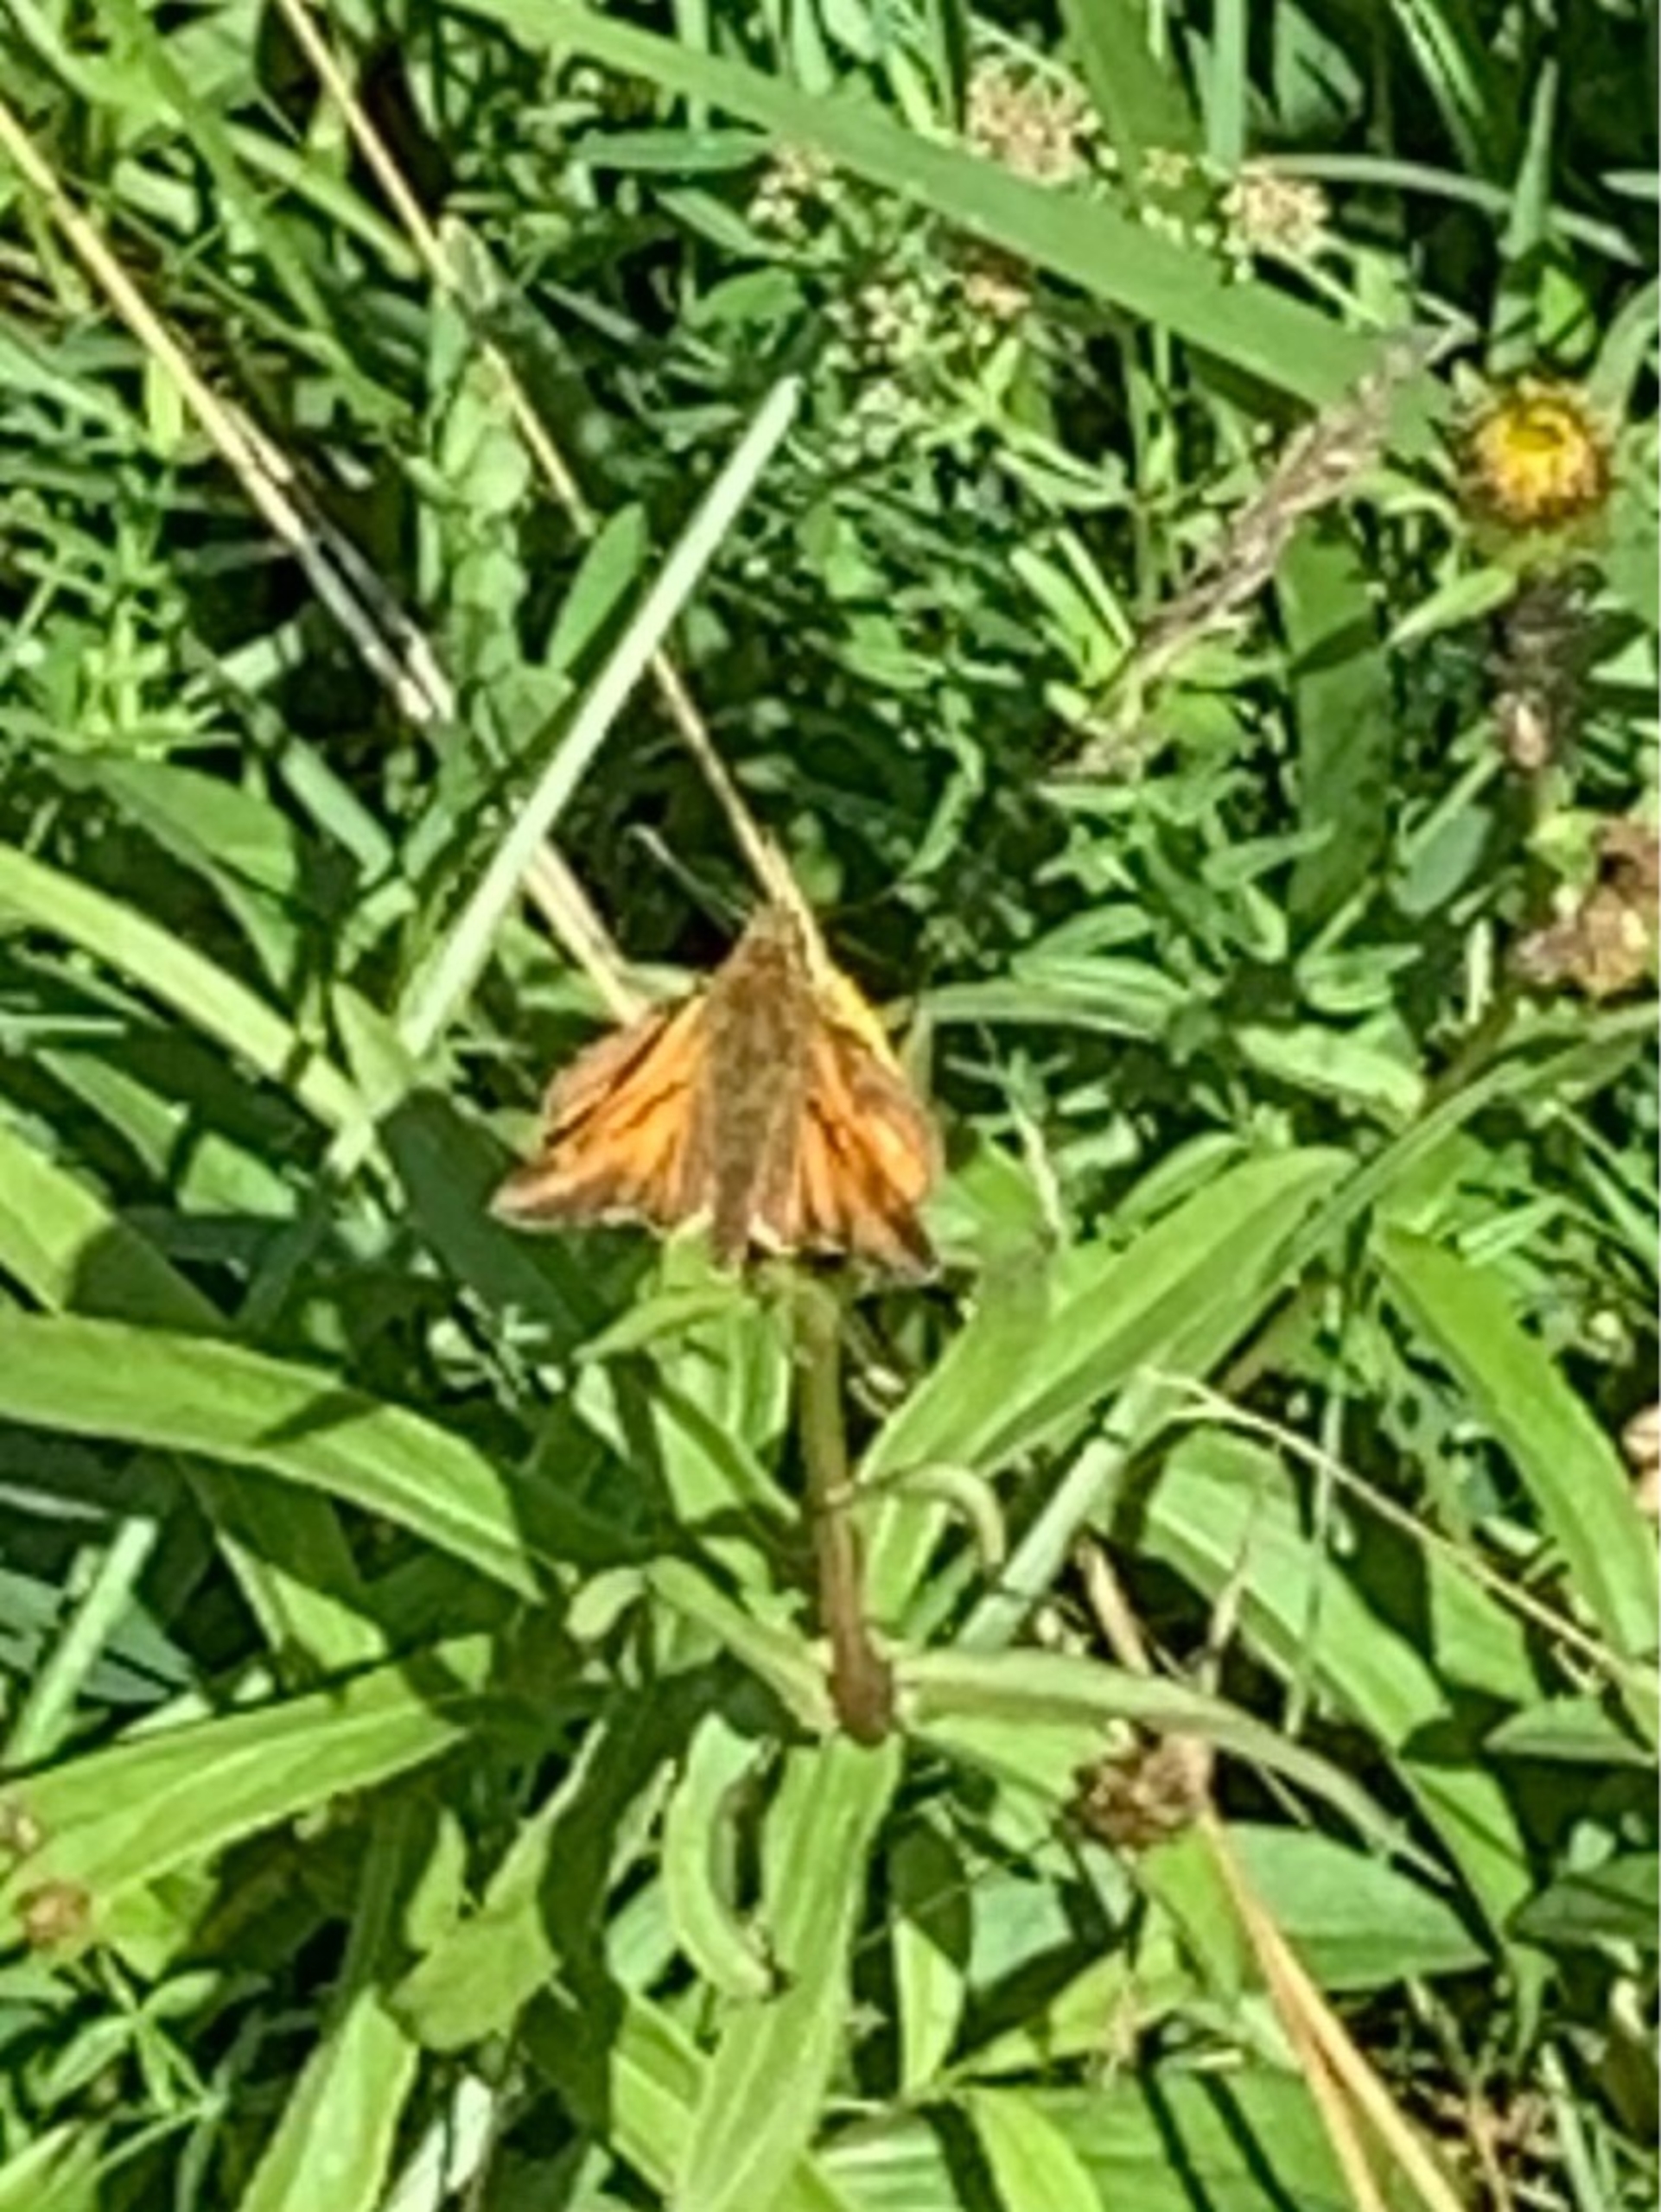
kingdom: Animalia
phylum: Arthropoda
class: Insecta
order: Lepidoptera
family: Hesperiidae
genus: Ochlodes
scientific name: Ochlodes venata
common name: Stor bredpande
